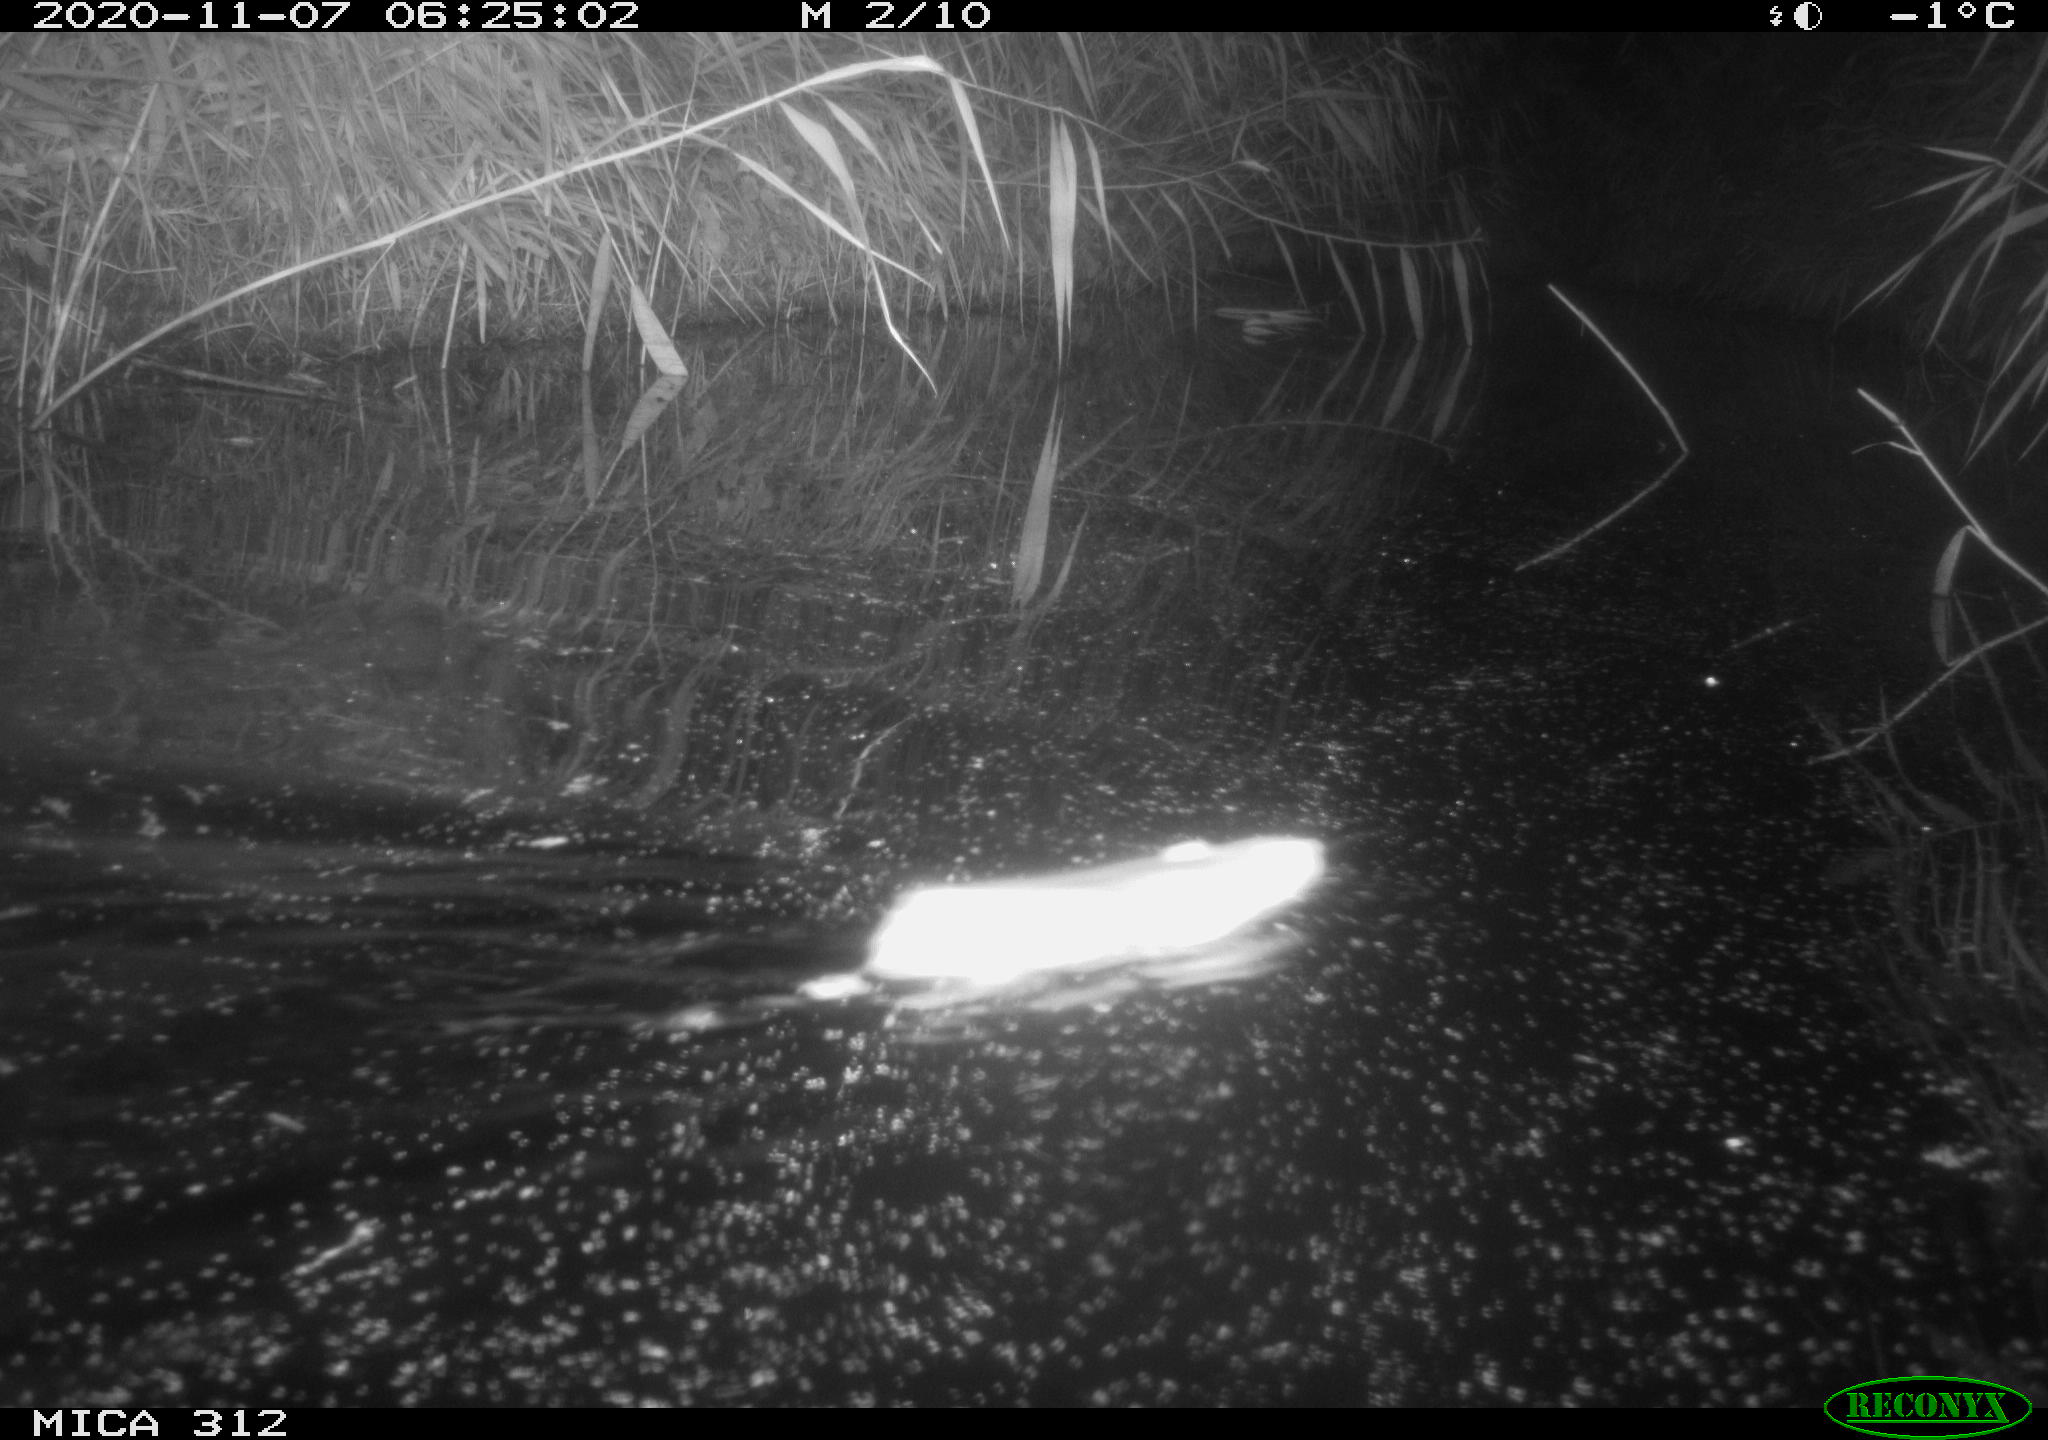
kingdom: Animalia
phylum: Chordata
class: Mammalia
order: Rodentia
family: Muridae
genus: Rattus
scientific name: Rattus norvegicus
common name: Brown rat
